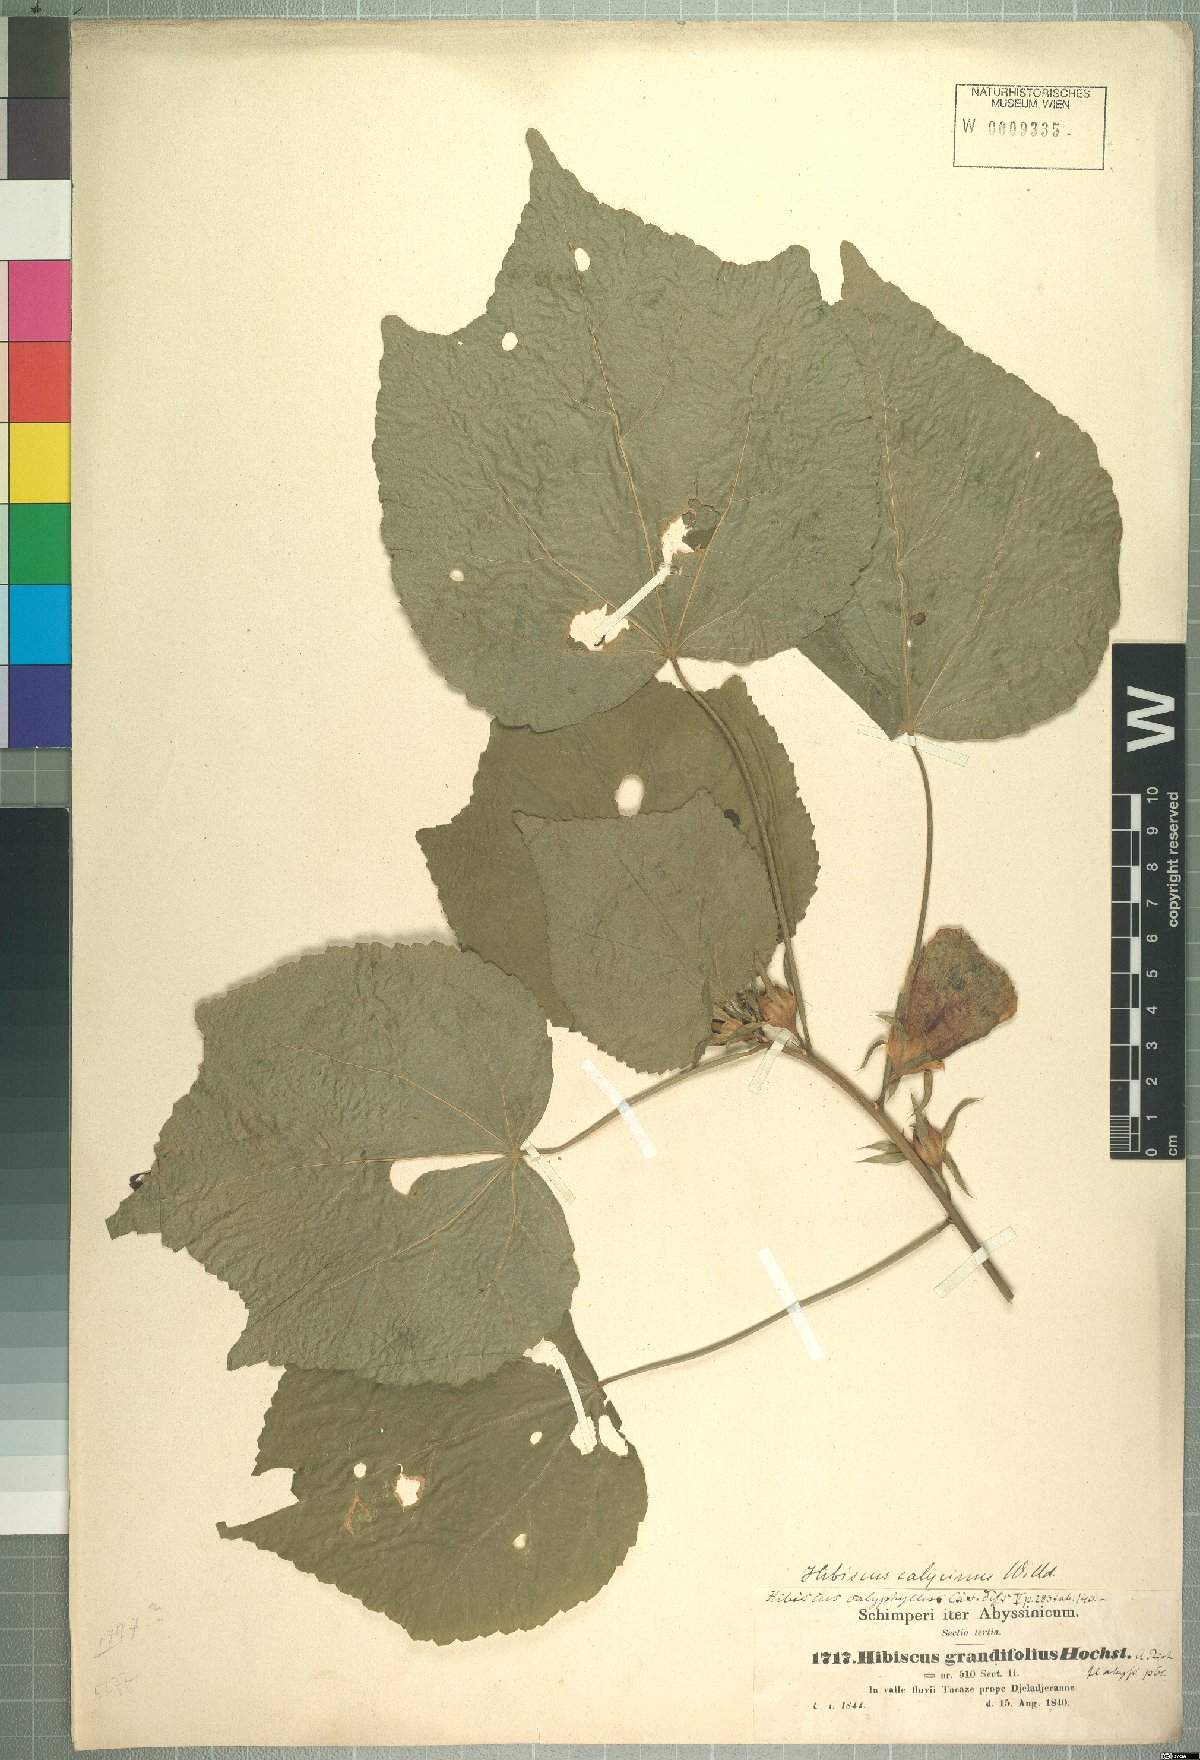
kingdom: Plantae
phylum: Tracheophyta
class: Magnoliopsida
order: Malvales
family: Malvaceae
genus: Hibiscus
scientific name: Hibiscus calyphyllus
